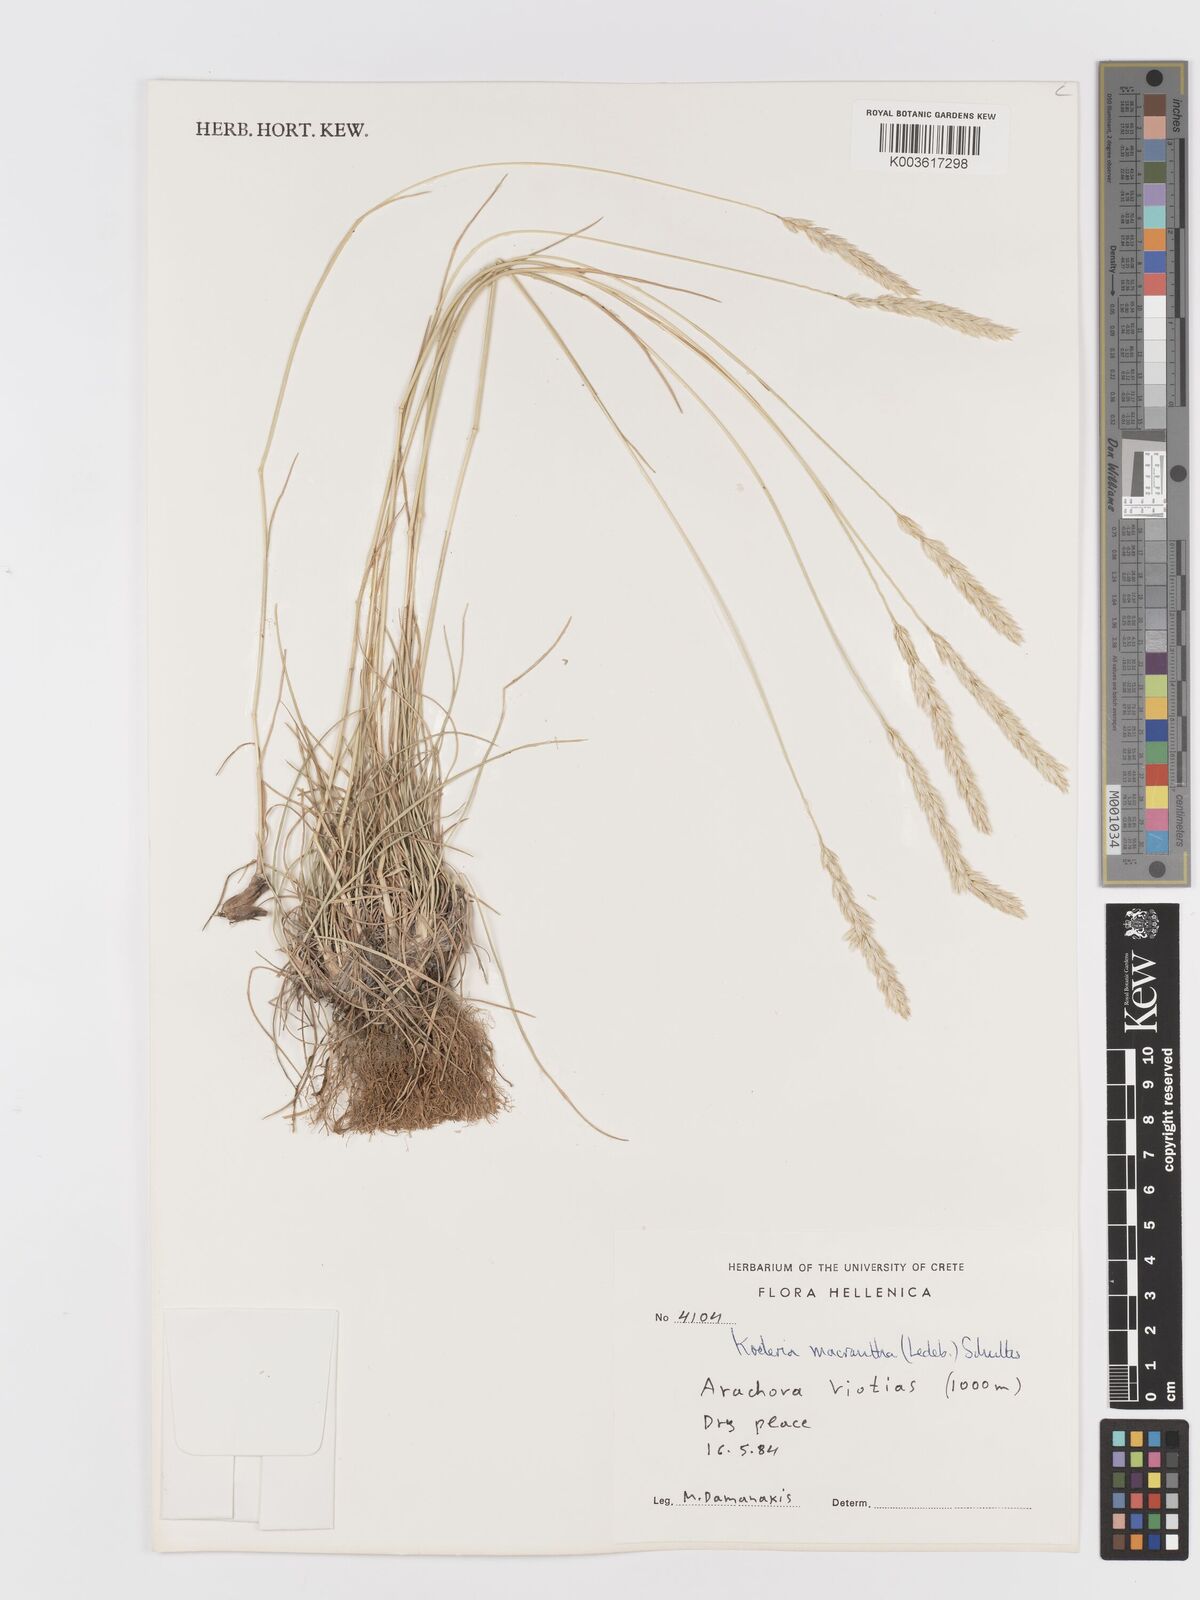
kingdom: Plantae
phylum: Tracheophyta
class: Liliopsida
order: Poales
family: Poaceae
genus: Koeleria
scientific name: Koeleria macrantha
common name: Crested hair-grass
